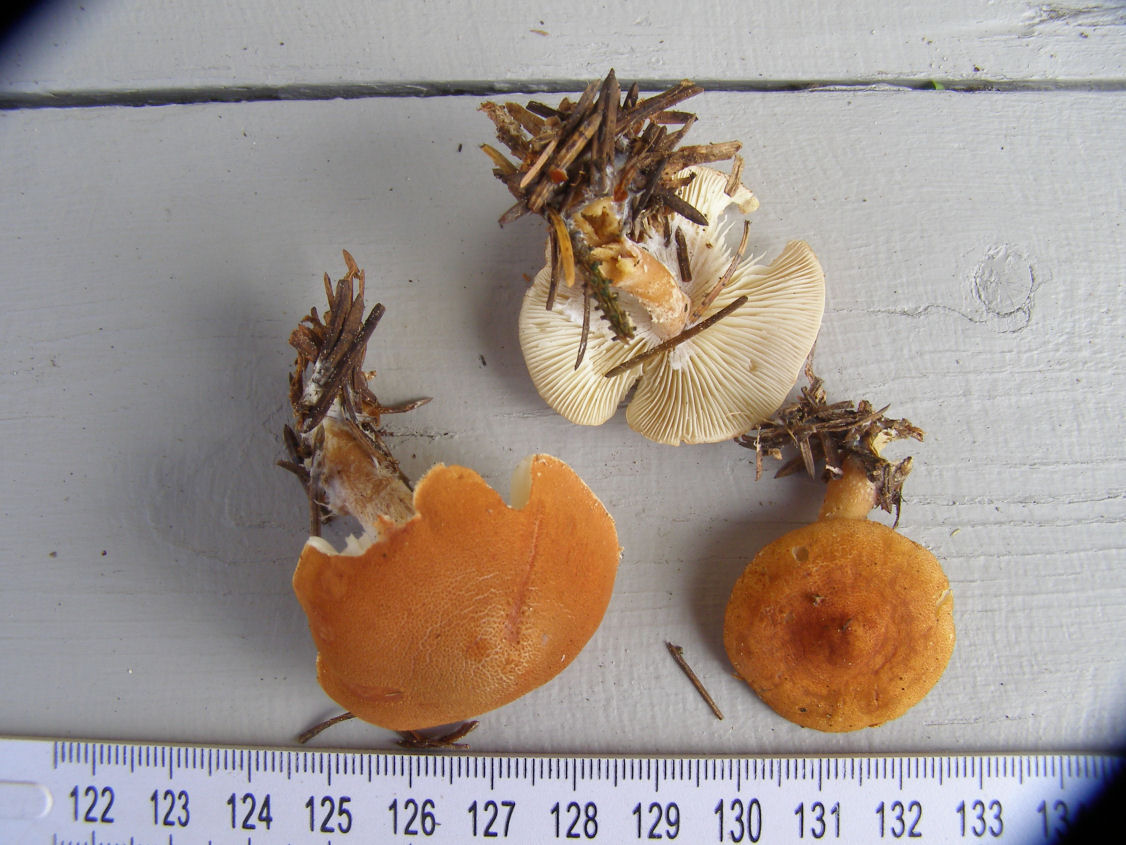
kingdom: Fungi
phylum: Basidiomycota
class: Agaricomycetes
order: Agaricales
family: Agaricaceae
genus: Cystodermella
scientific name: Cystodermella adnatifolia
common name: koralrød grynhat
